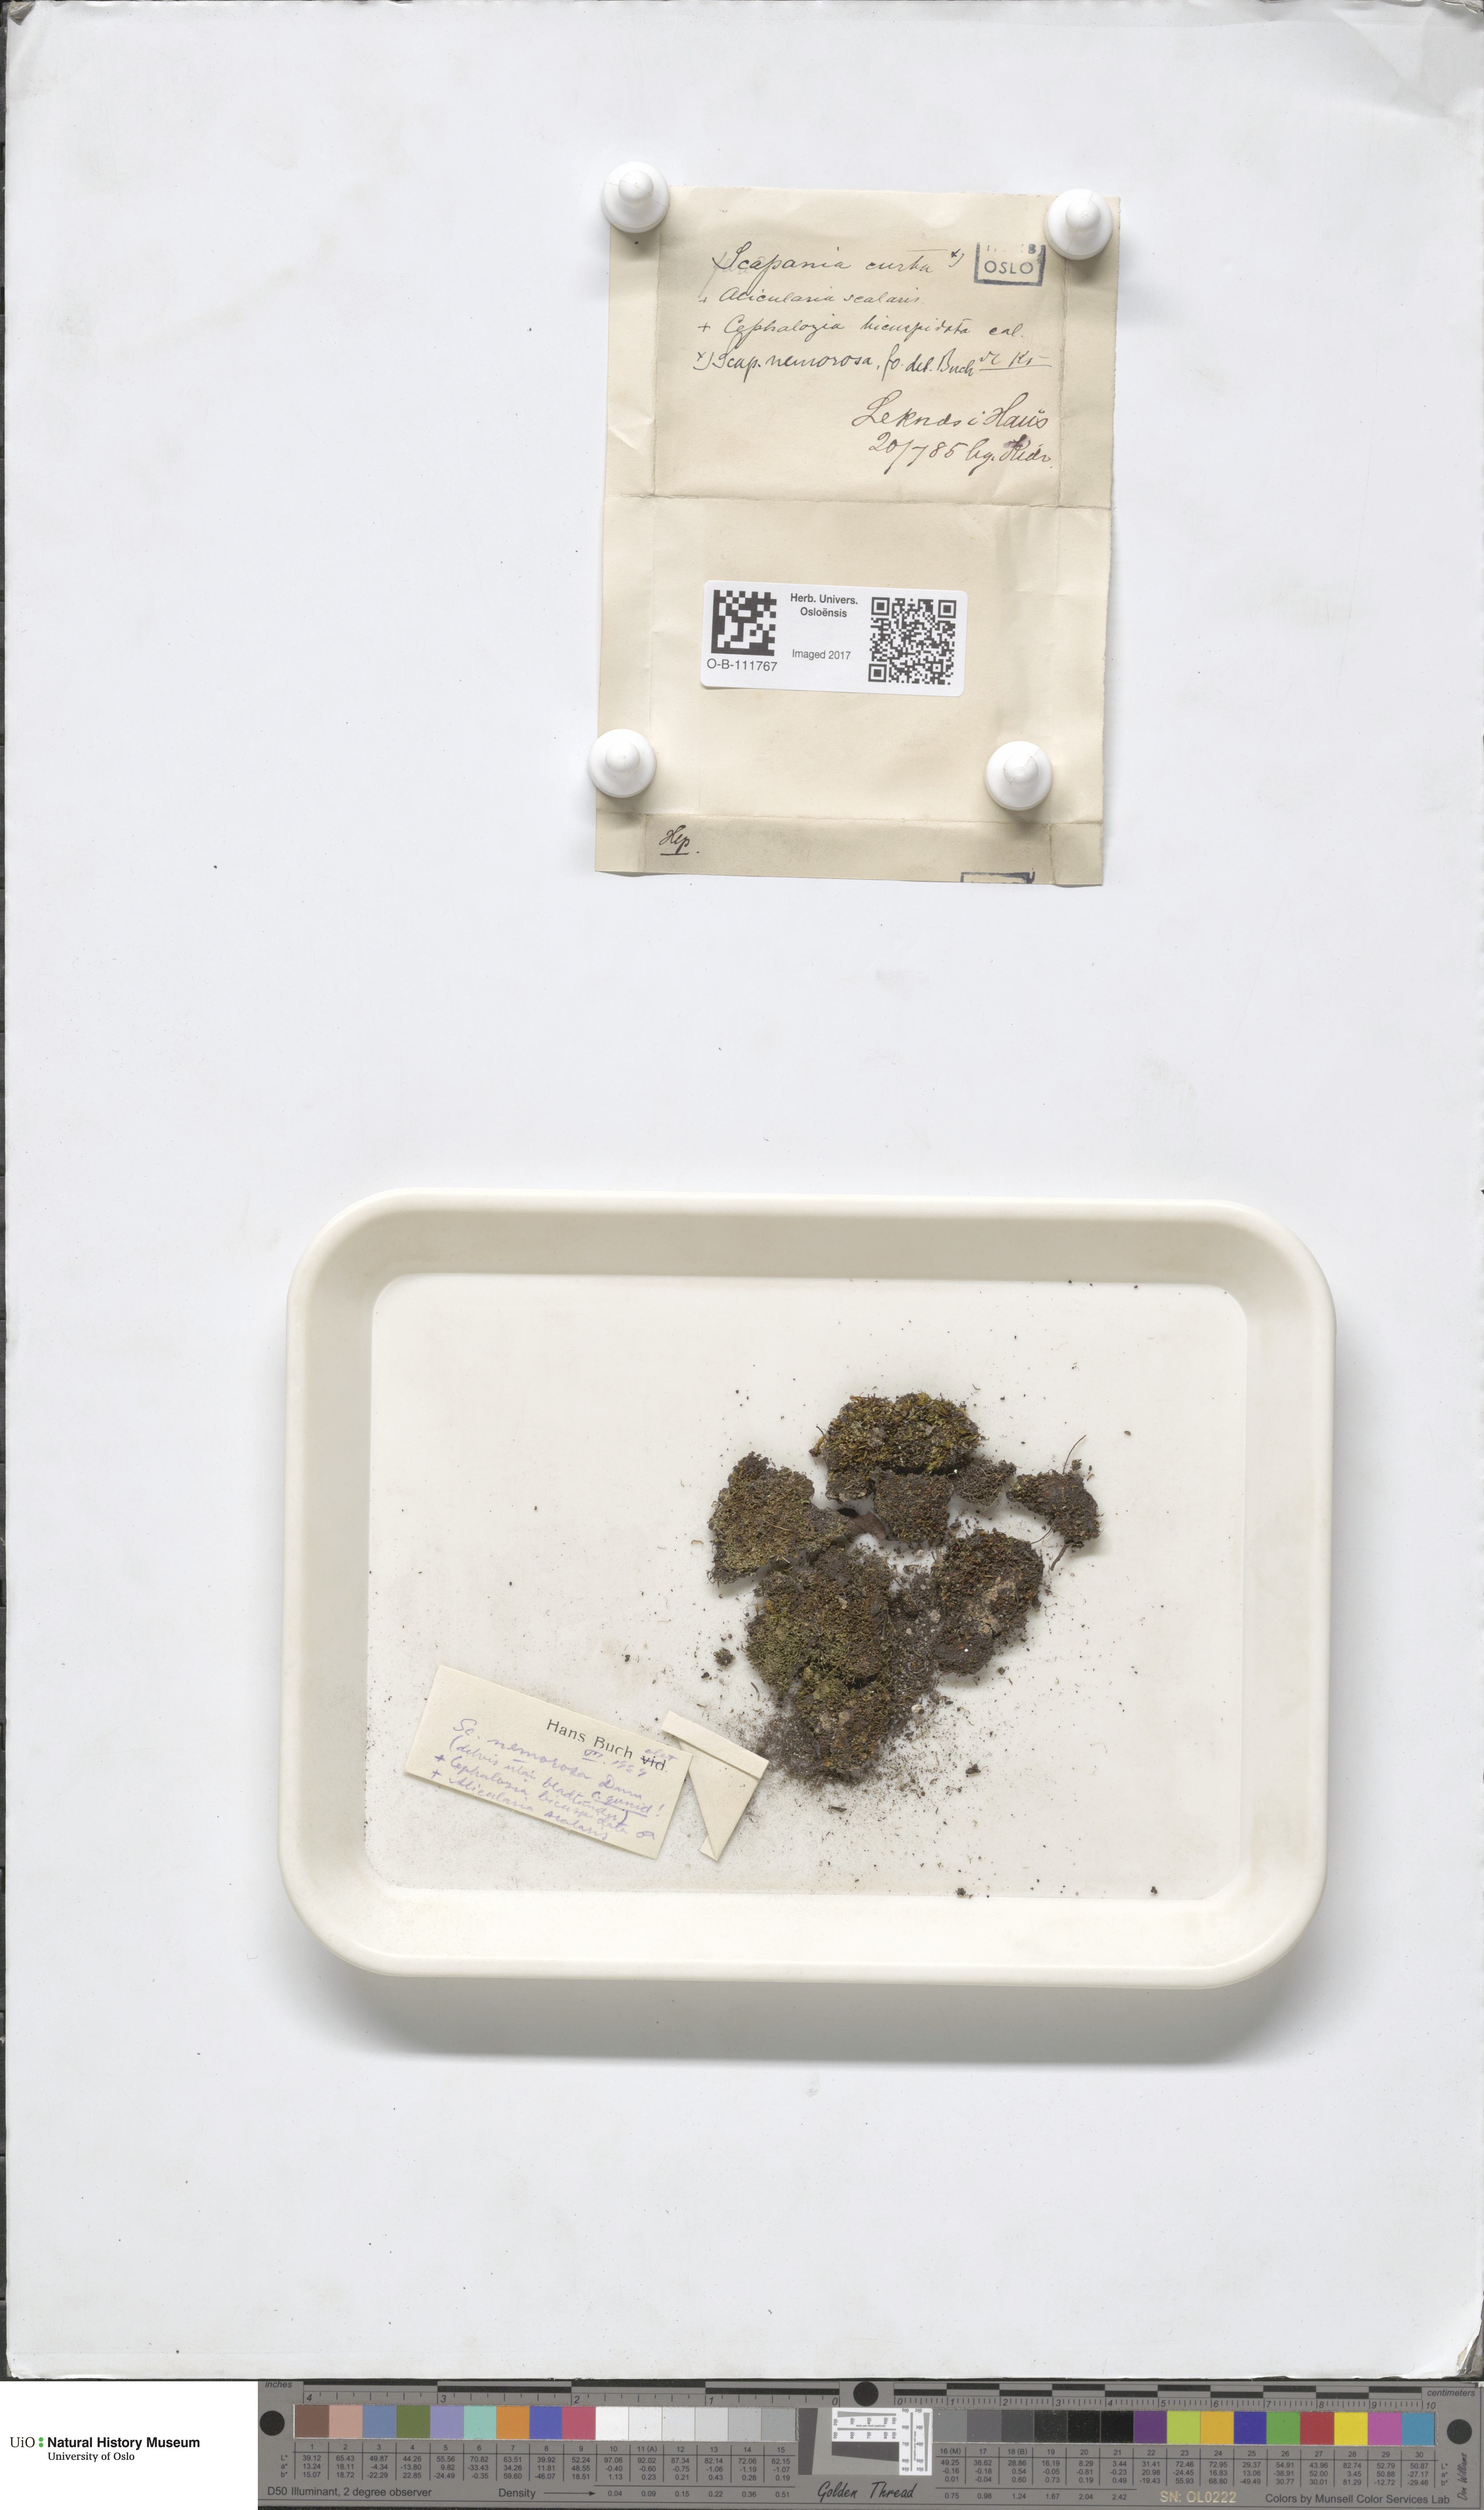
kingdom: Plantae
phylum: Marchantiophyta
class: Jungermanniopsida
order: Jungermanniales
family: Scapaniaceae
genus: Scapania
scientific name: Scapania nemorea
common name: Grove earwort
